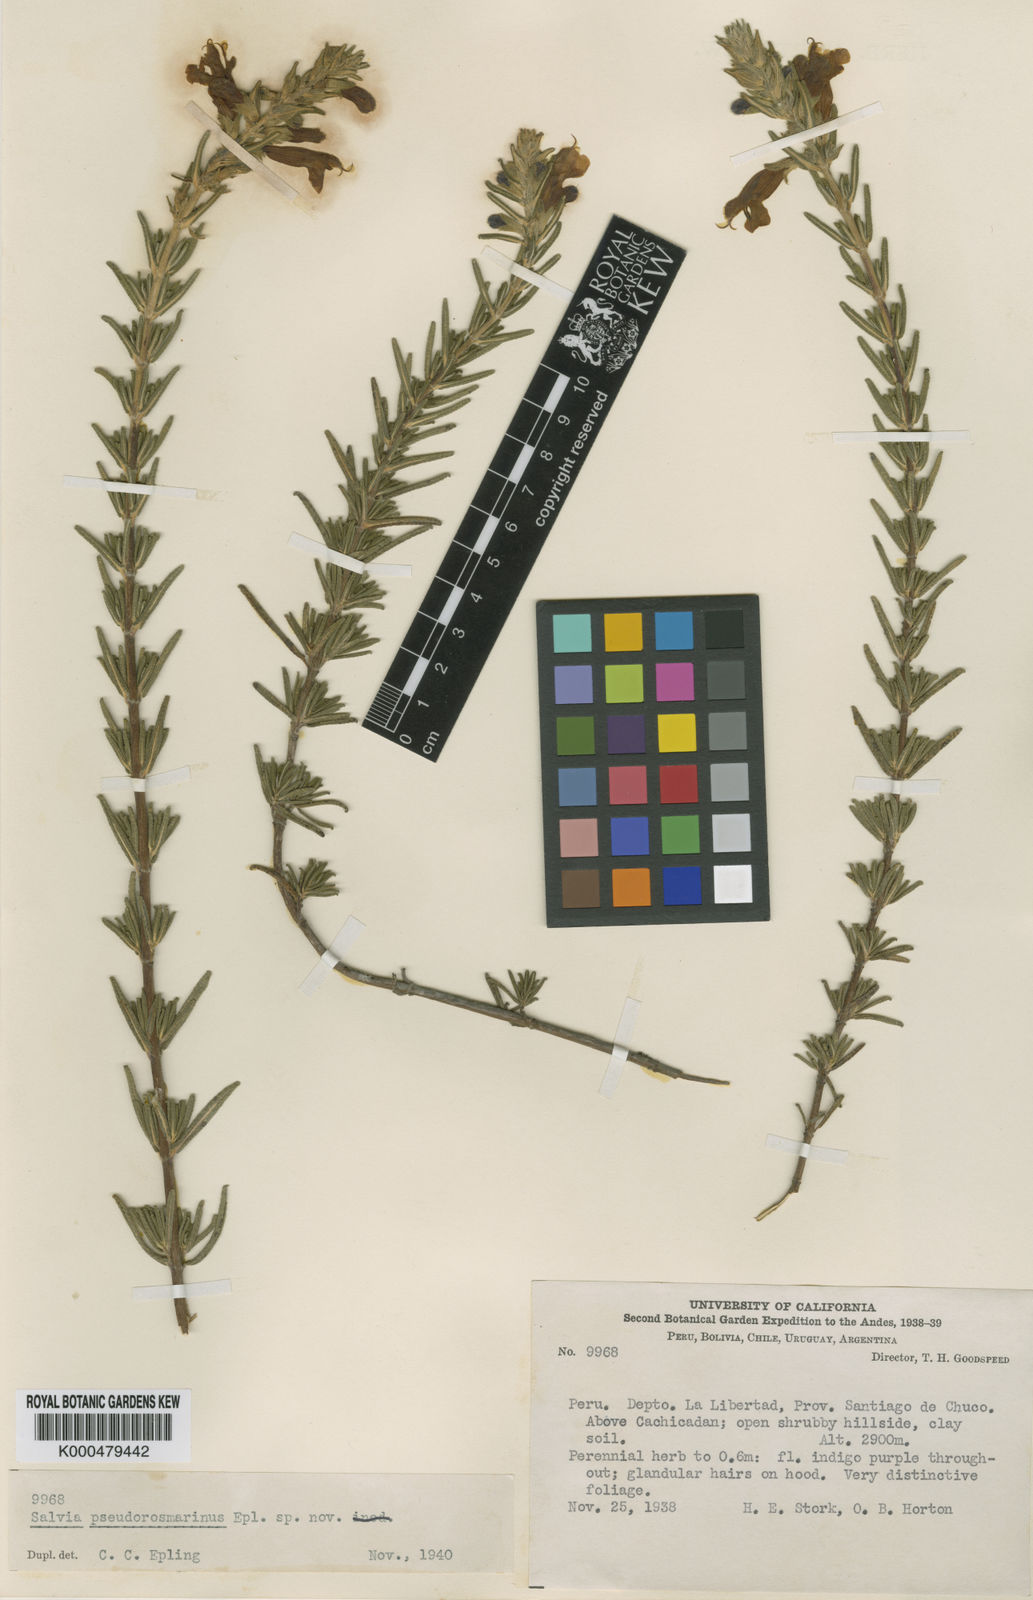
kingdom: Plantae
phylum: Tracheophyta
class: Magnoliopsida
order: Lamiales
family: Lamiaceae
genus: Salvia
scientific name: Salvia pseudorosmarinus
